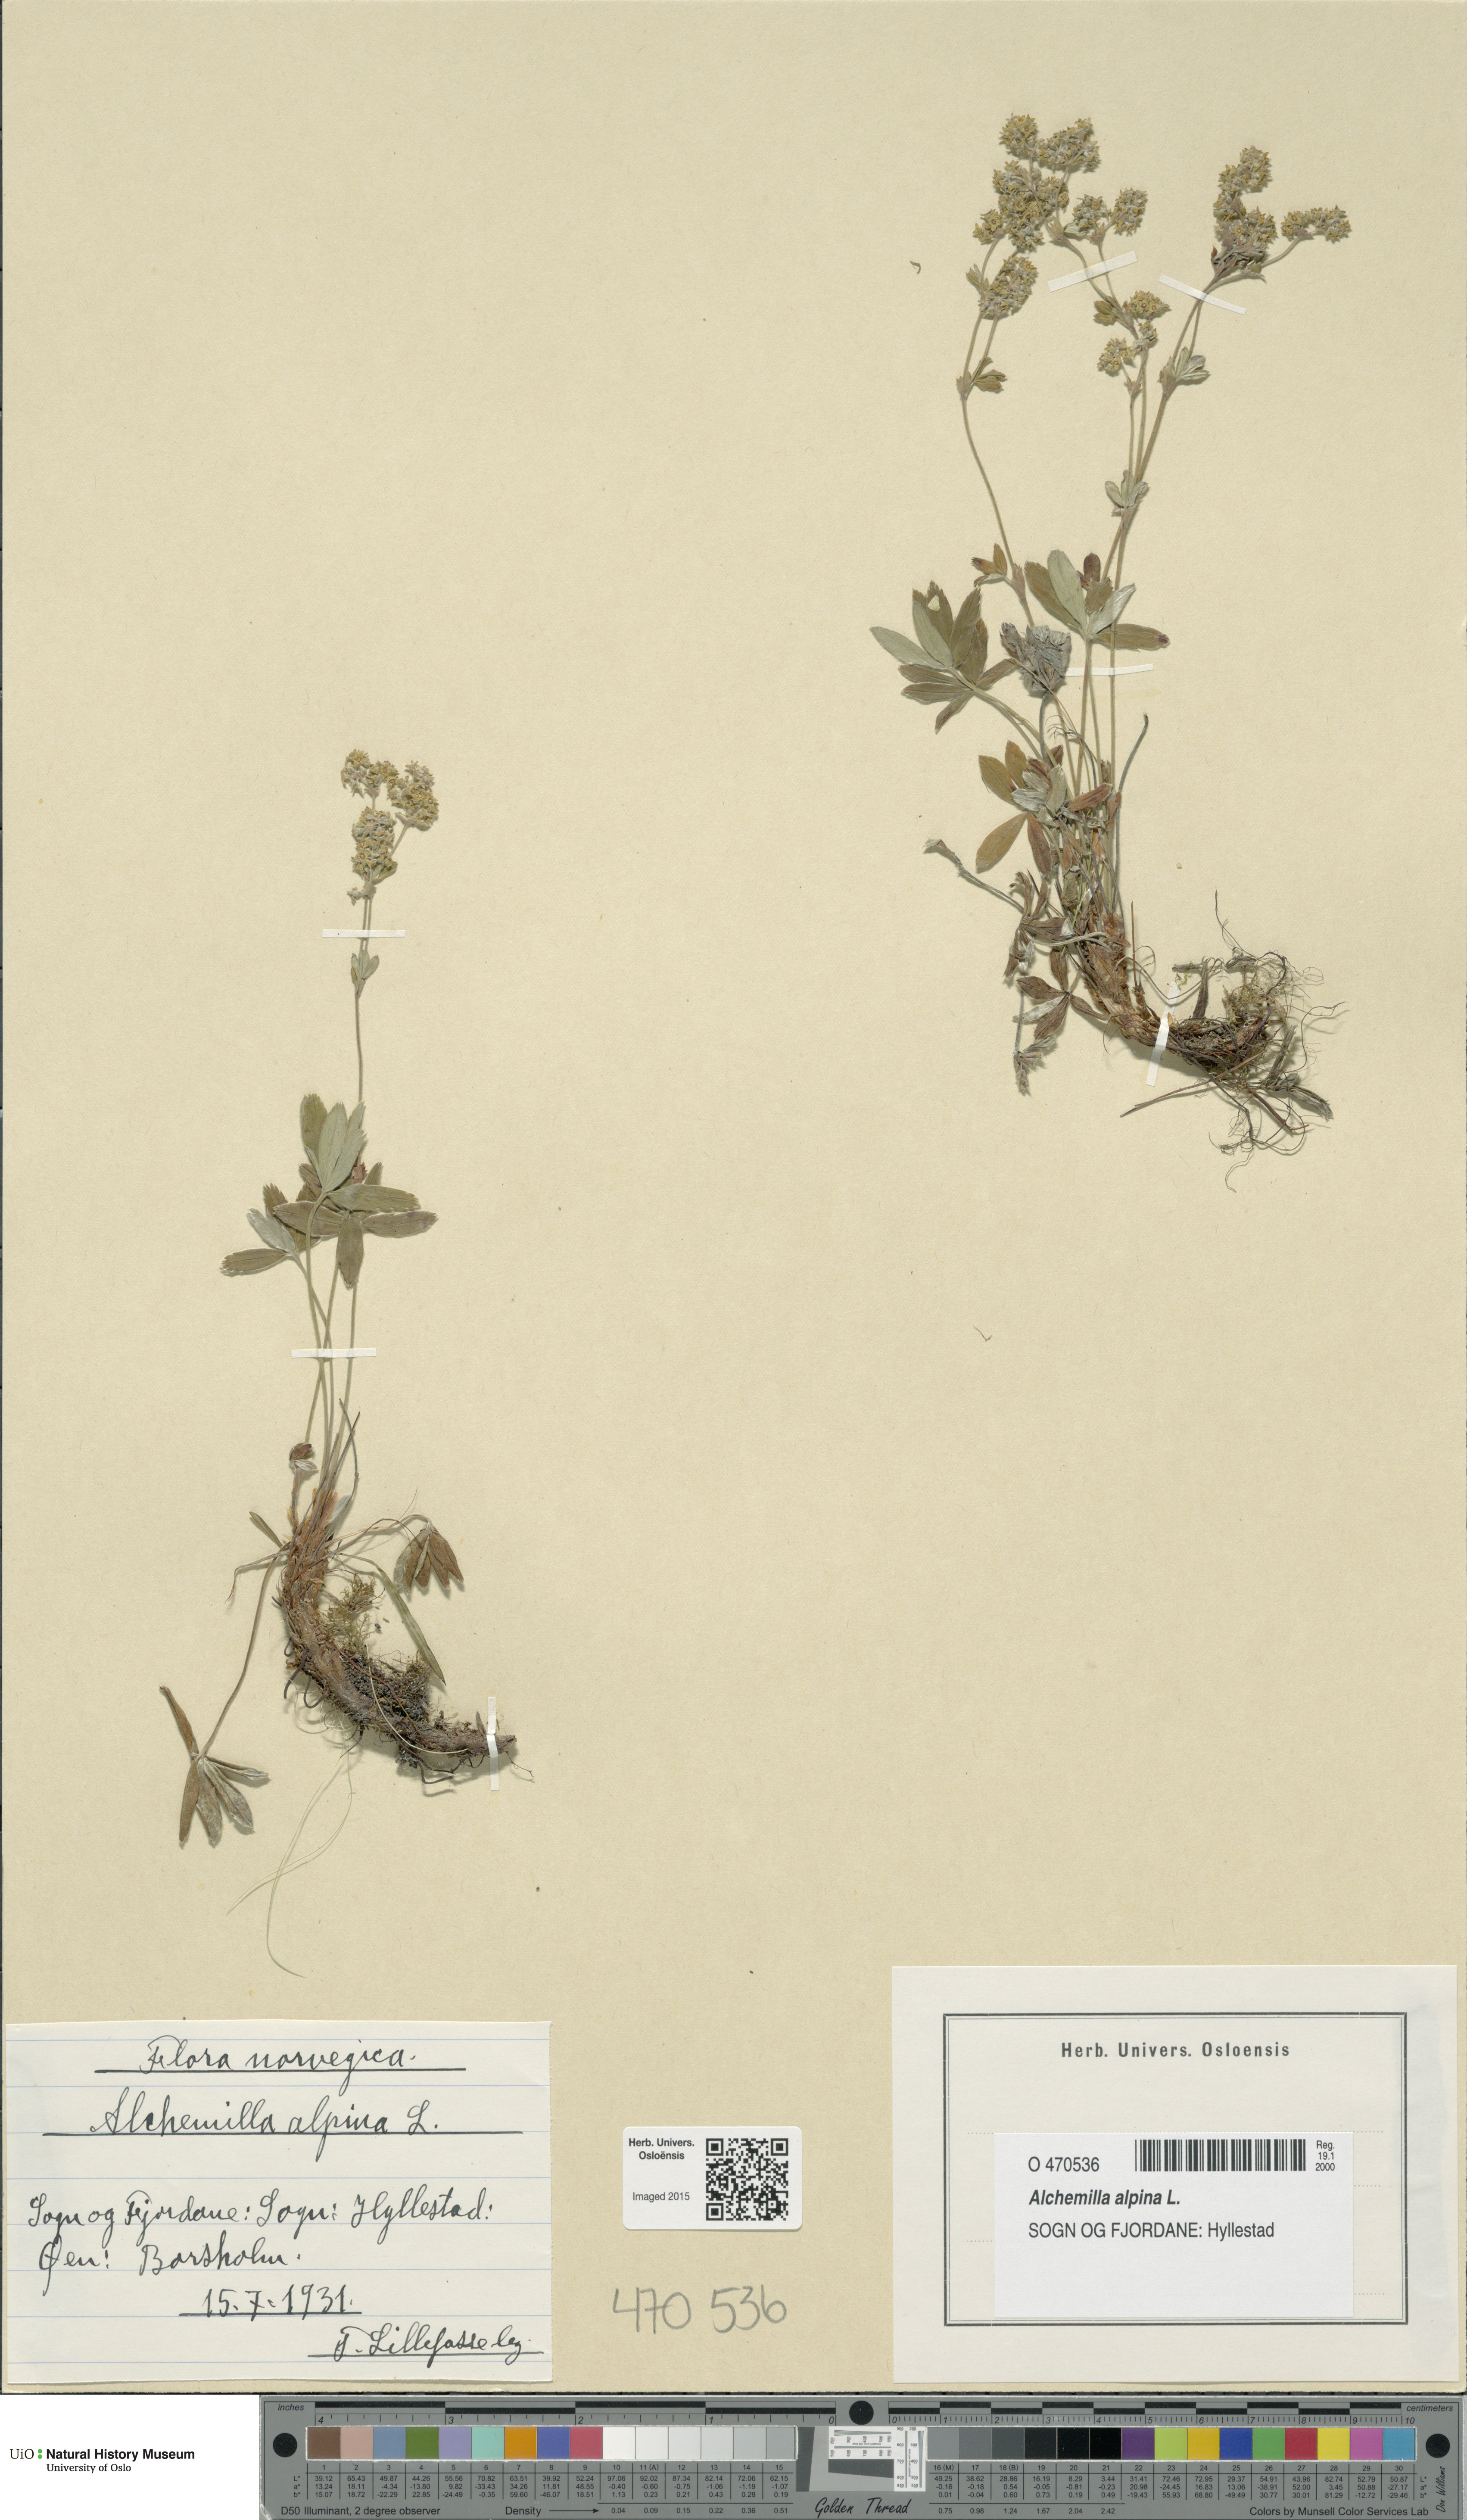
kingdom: Plantae
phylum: Tracheophyta
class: Magnoliopsida
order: Rosales
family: Rosaceae
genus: Alchemilla
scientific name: Alchemilla alpina
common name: Alpine lady's-mantle
